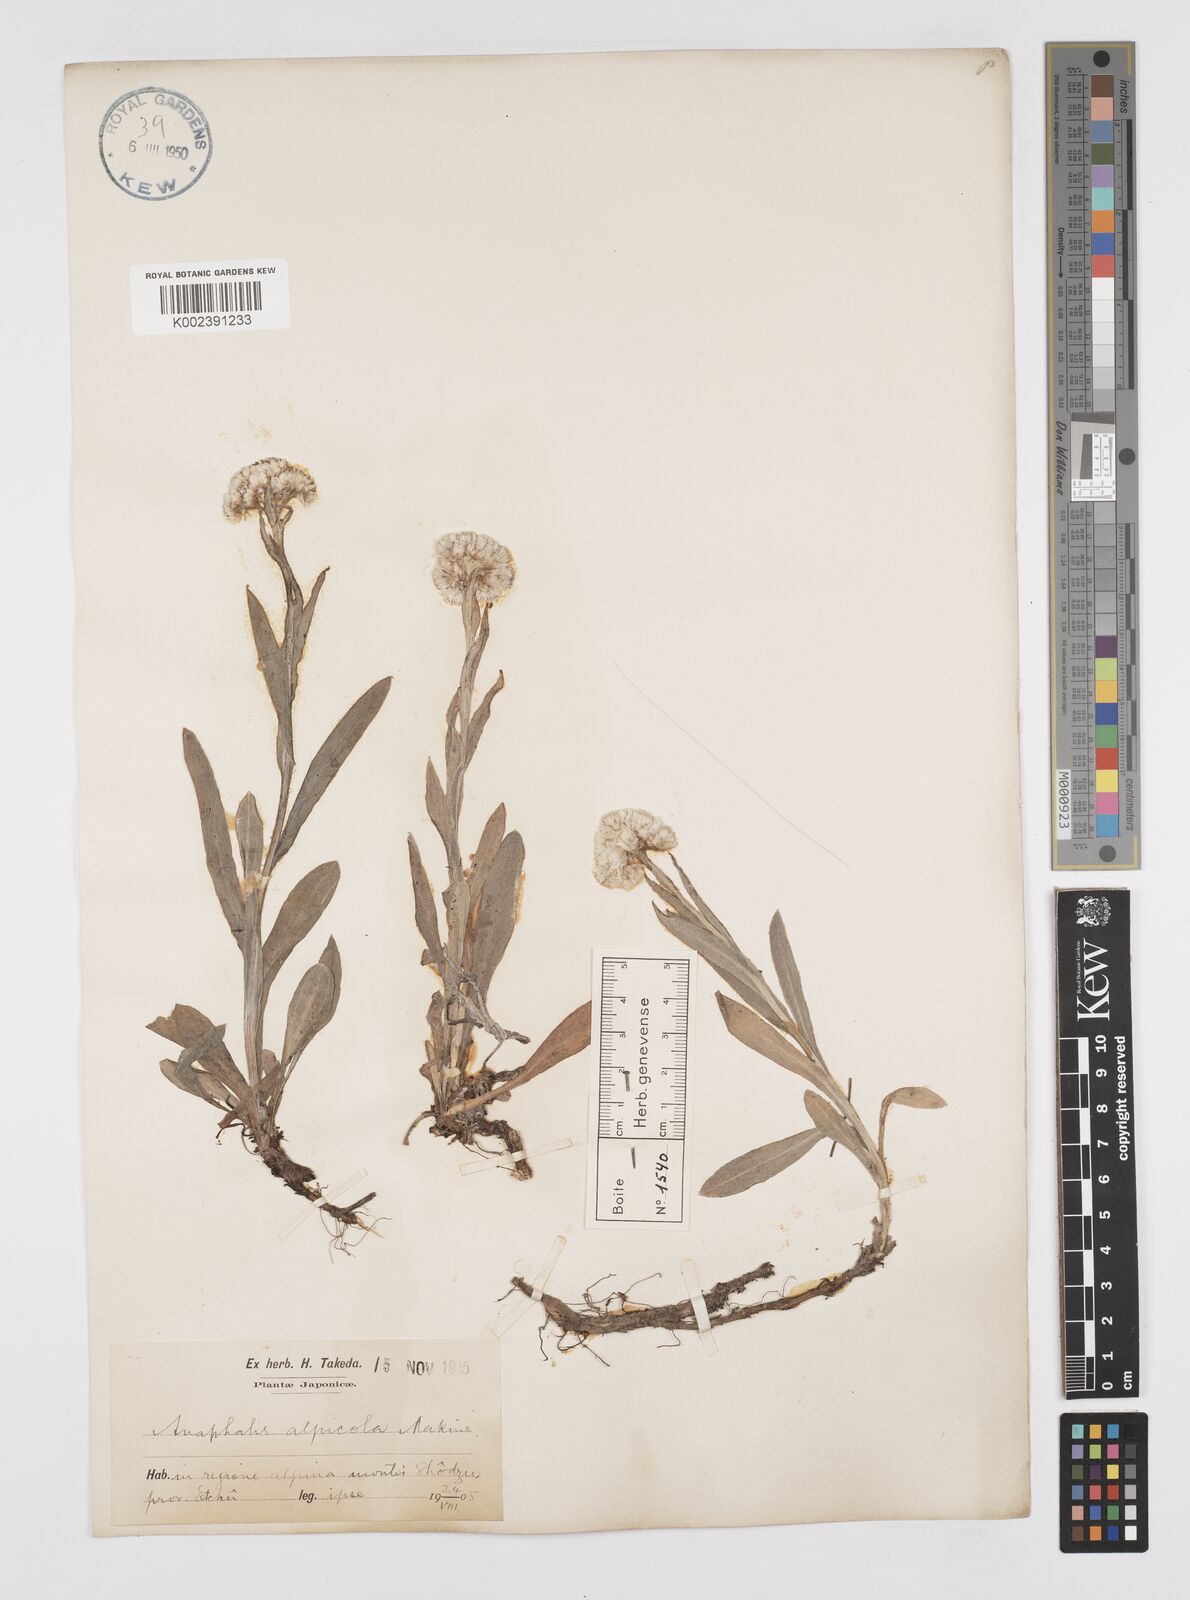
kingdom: Plantae
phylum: Tracheophyta
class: Magnoliopsida
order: Asterales
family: Asteraceae
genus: Anaphalis
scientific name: Anaphalis alpicola
